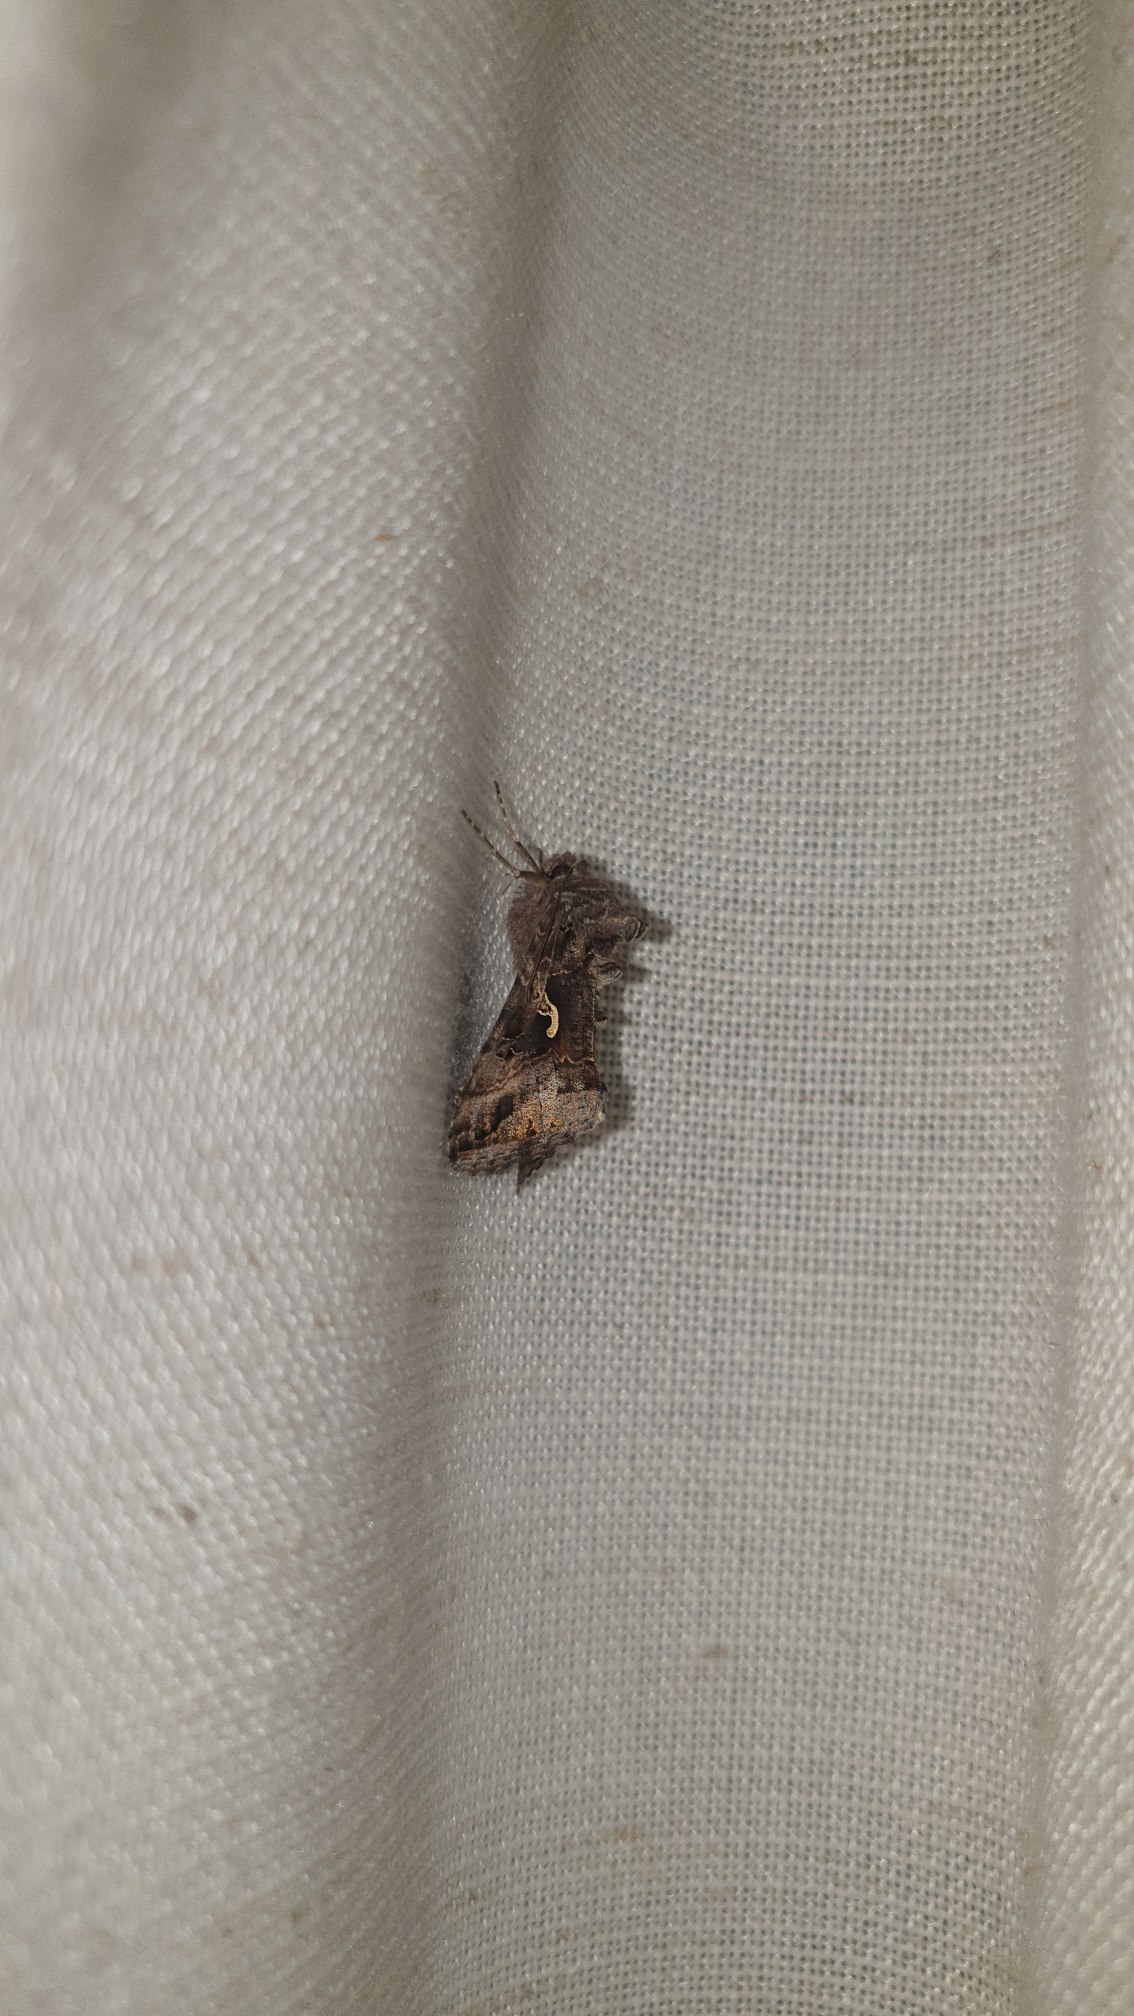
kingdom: Animalia
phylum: Arthropoda
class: Insecta
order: Lepidoptera
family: Noctuidae
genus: Autographa
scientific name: Autographa gamma
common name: Gammaugle
